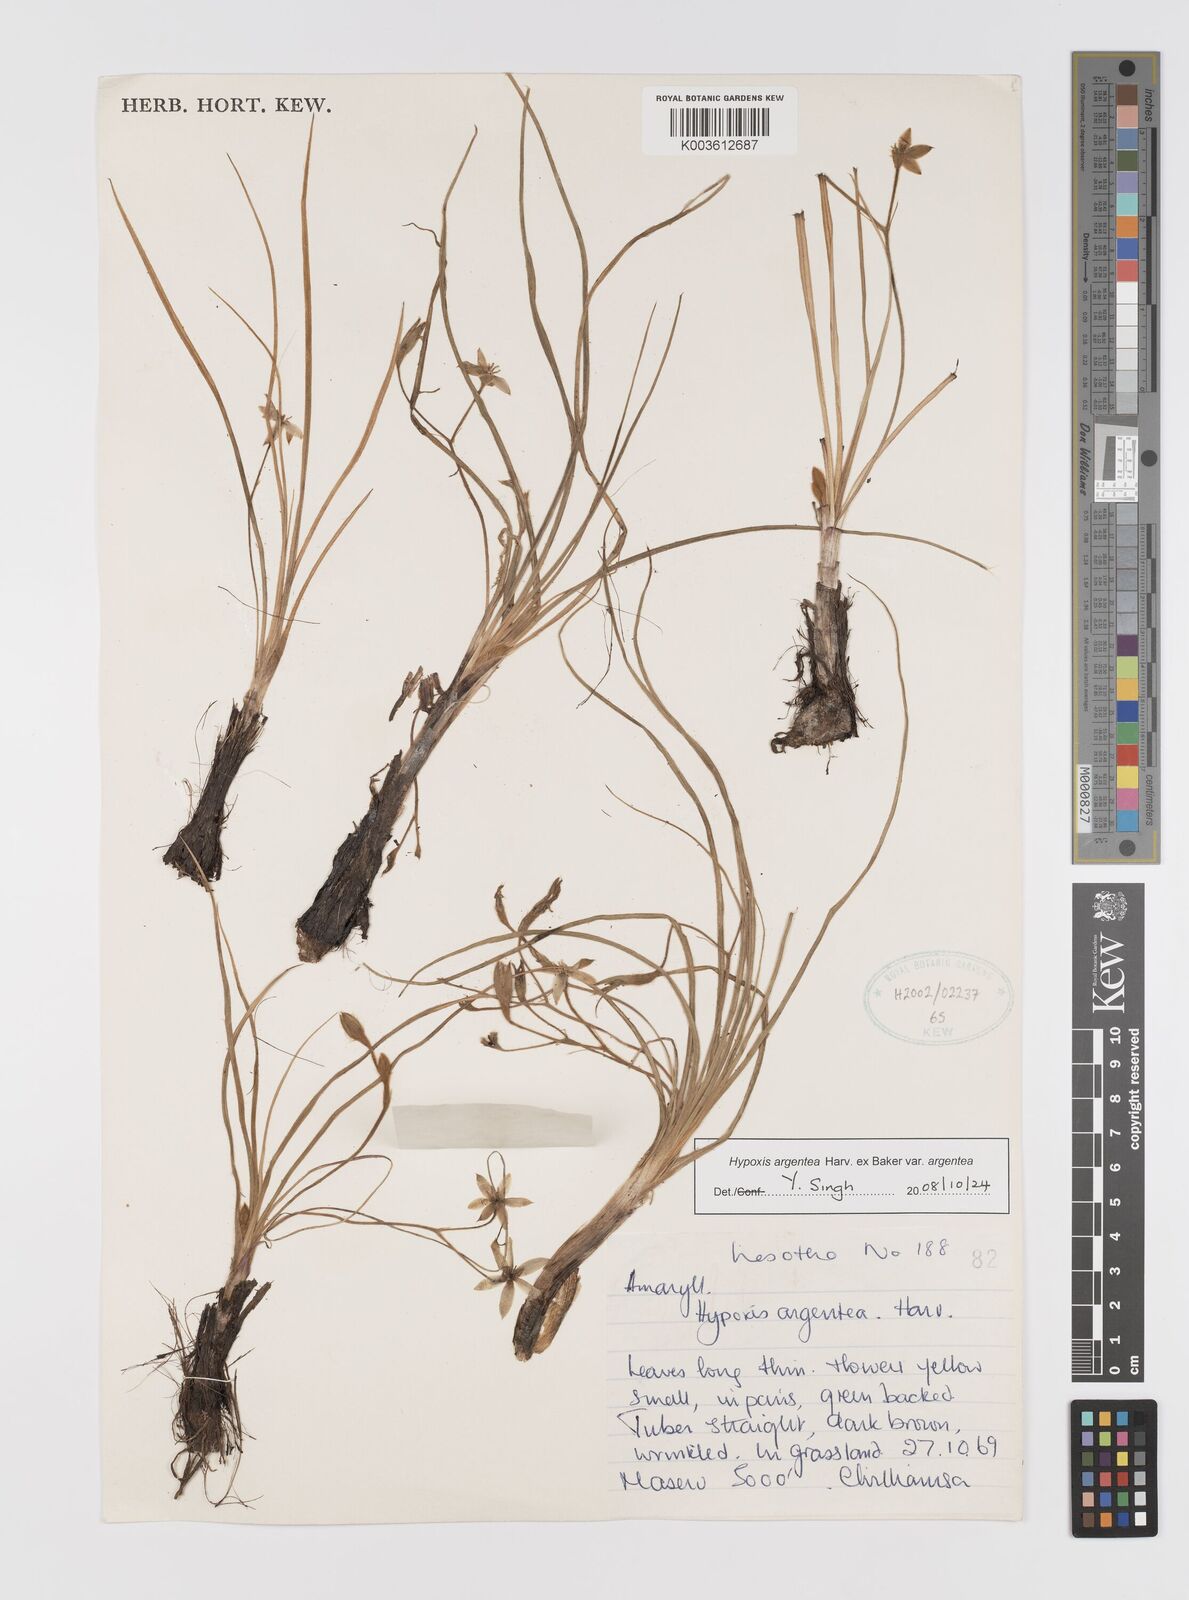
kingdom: Plantae
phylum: Tracheophyta
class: Liliopsida
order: Asparagales
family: Hypoxidaceae
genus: Hypoxis
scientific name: Hypoxis argentea
